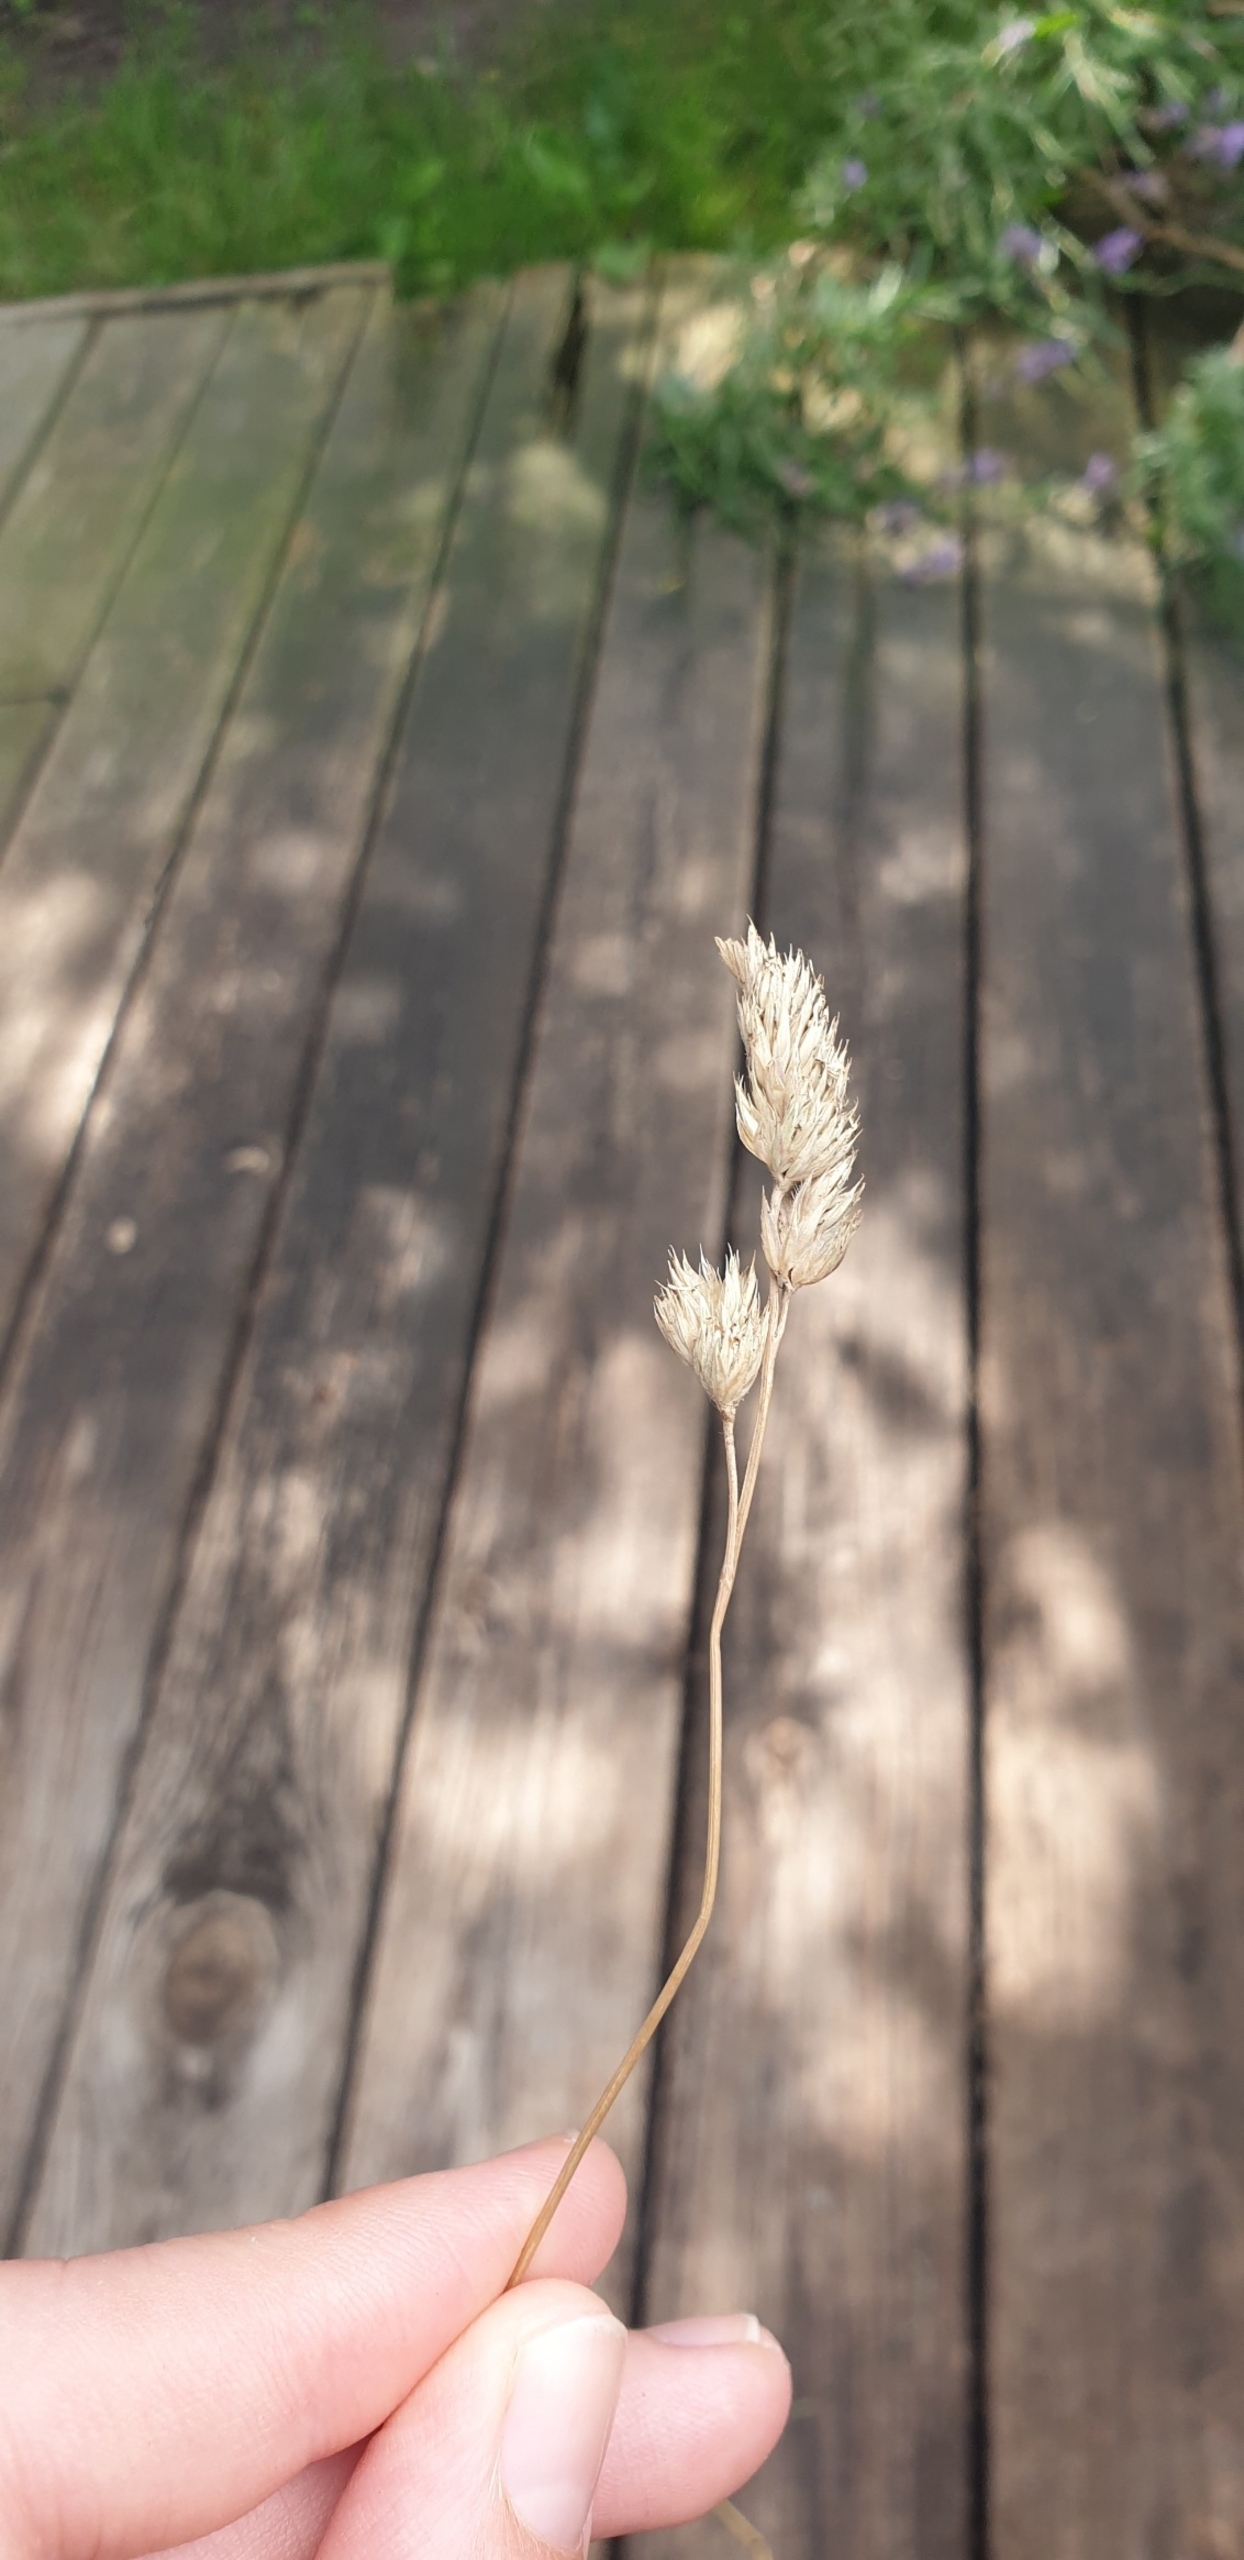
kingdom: Plantae
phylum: Tracheophyta
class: Liliopsida
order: Poales
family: Poaceae
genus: Dactylis
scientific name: Dactylis glomerata
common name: Almindelig hundegræs
